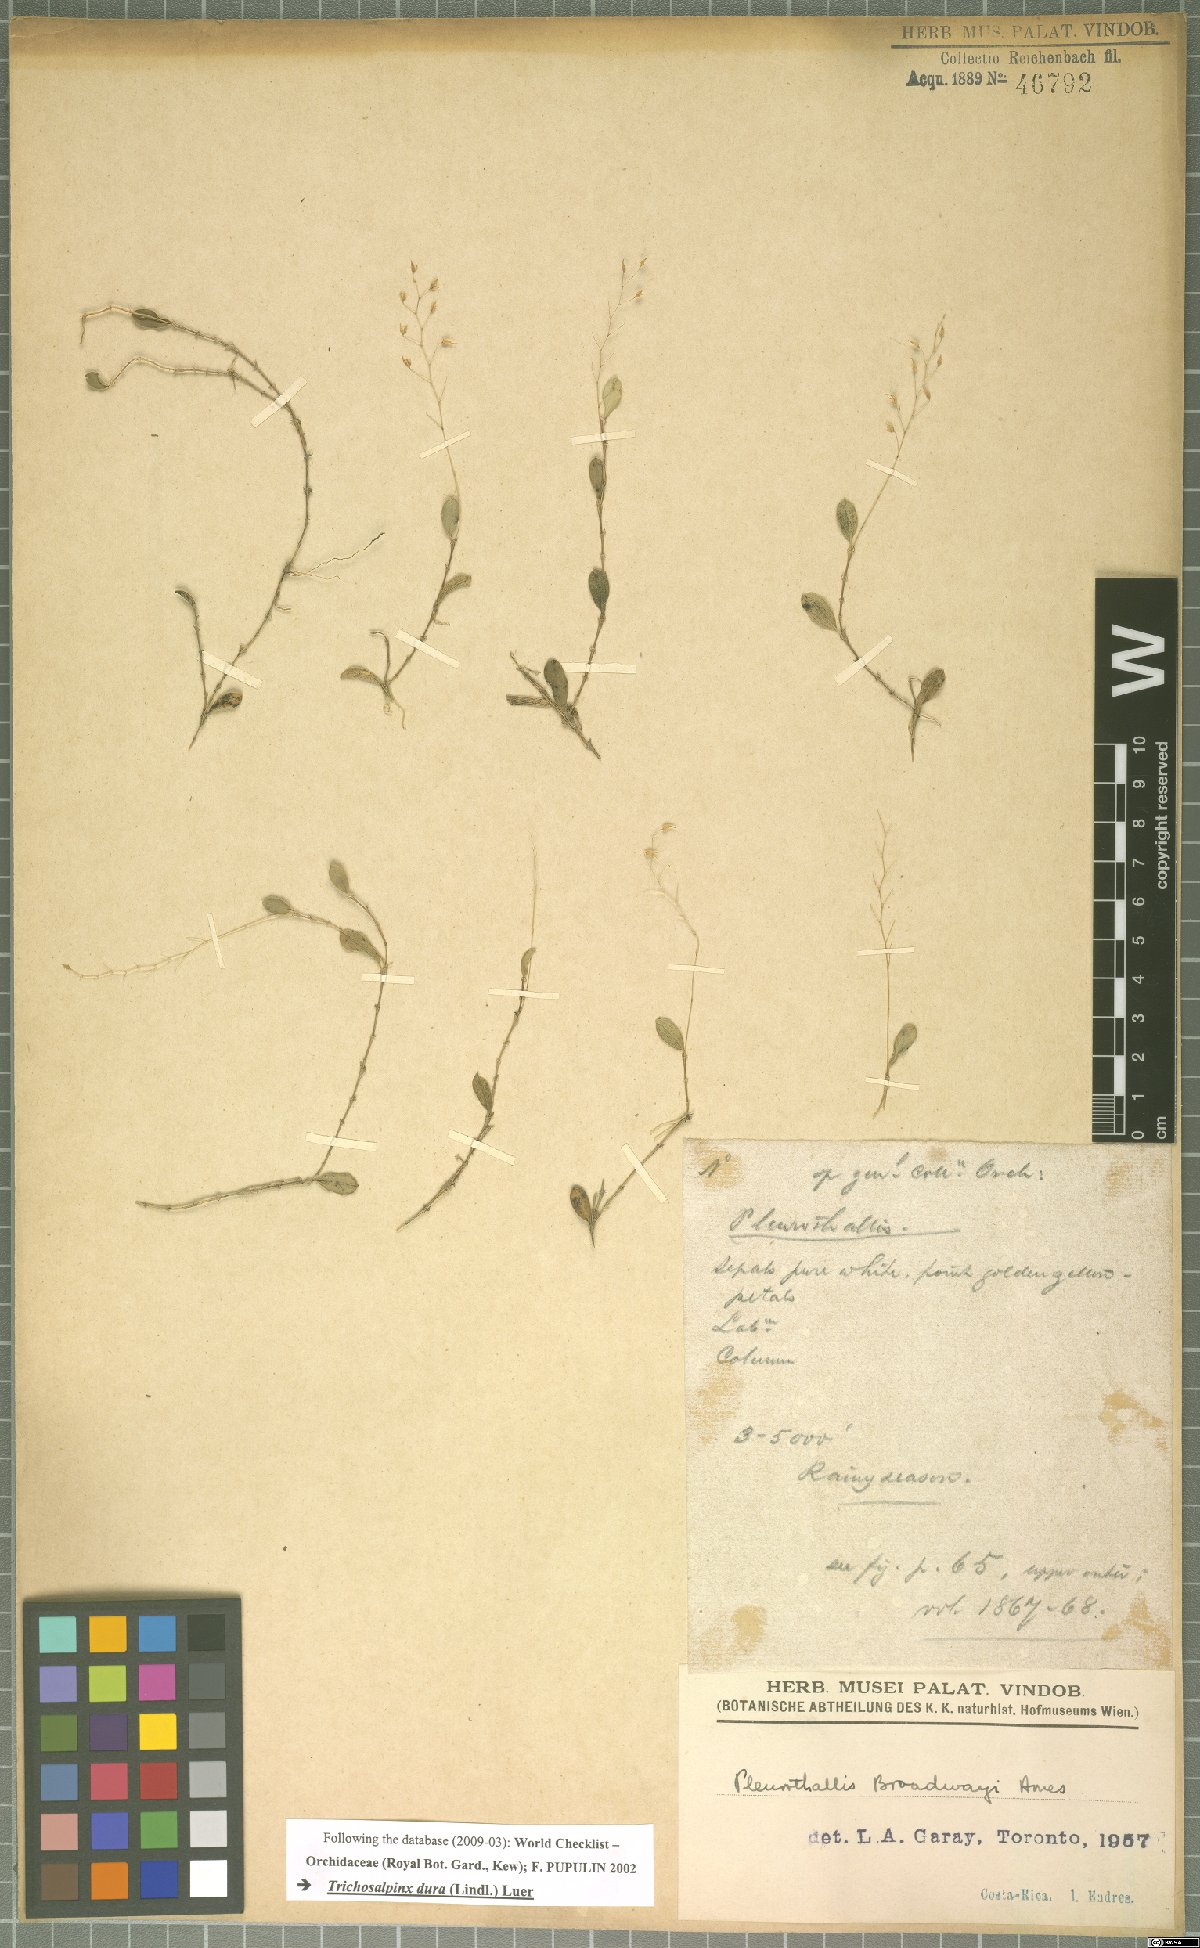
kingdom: Plantae
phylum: Tracheophyta
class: Liliopsida
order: Asparagales
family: Orchidaceae
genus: Trichosalpinx
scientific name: Trichosalpinx dura
